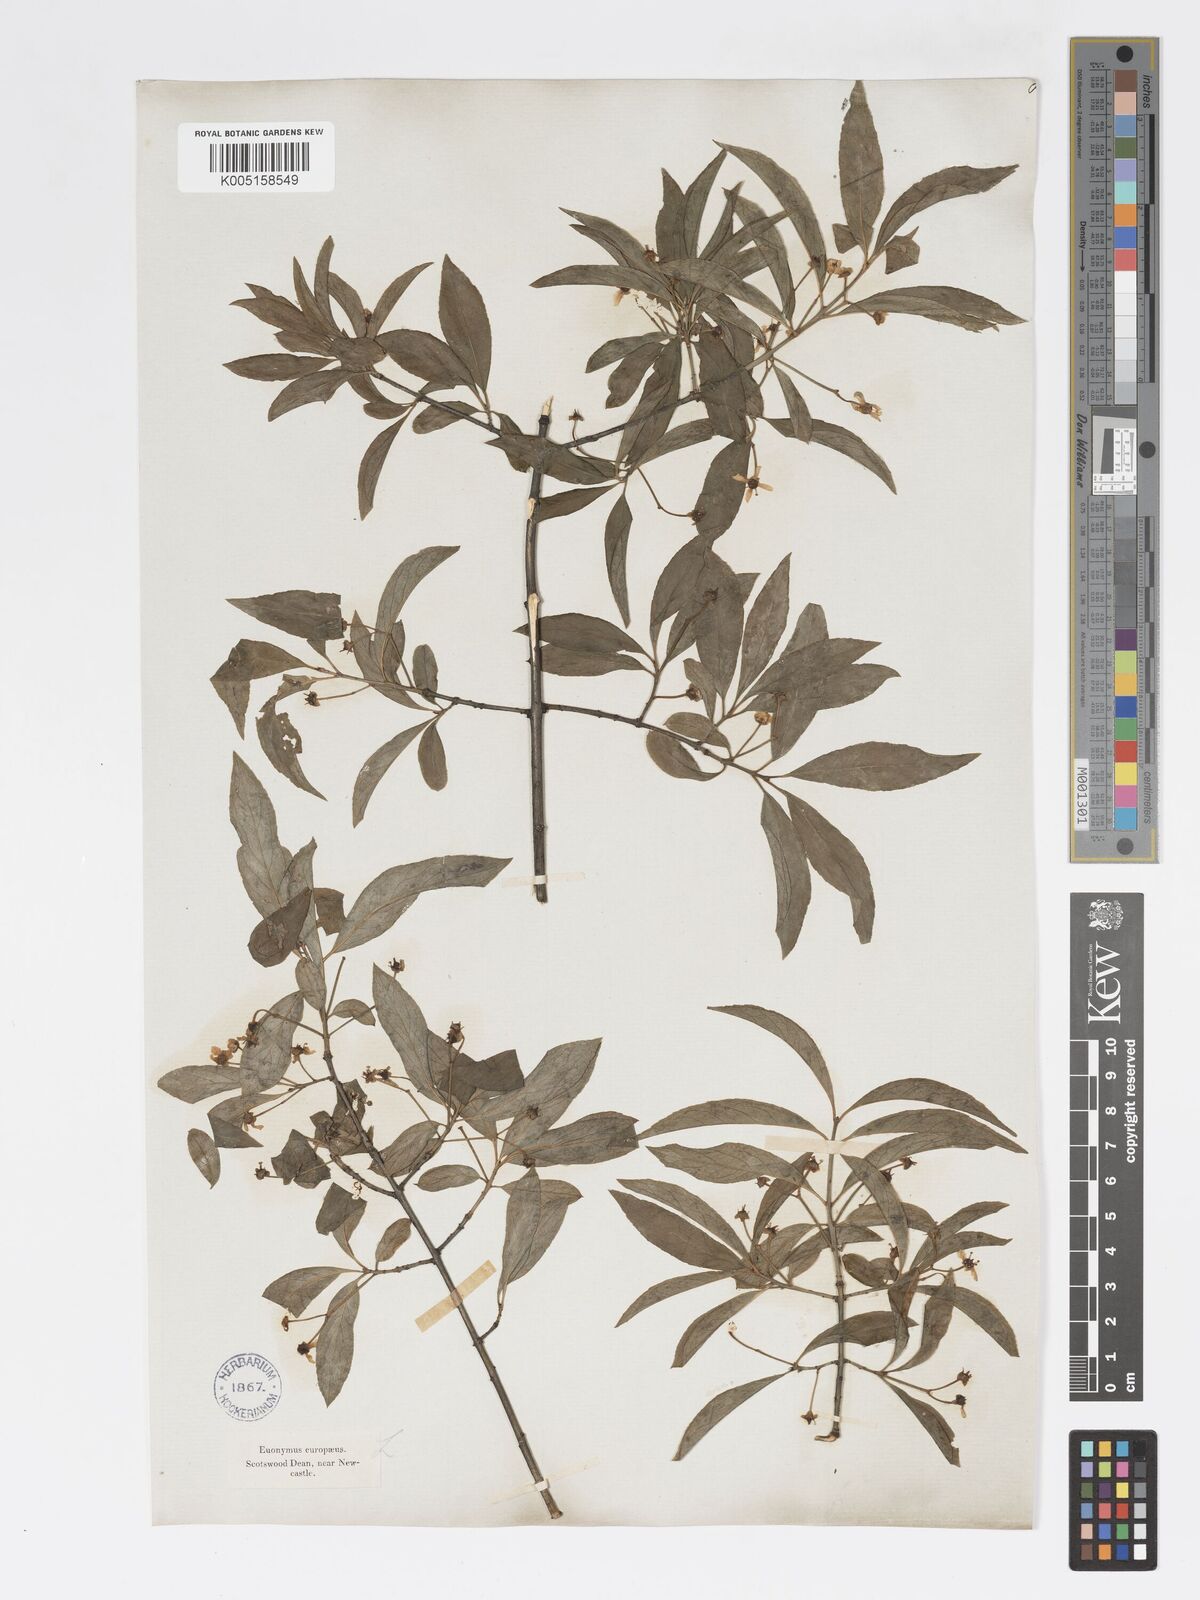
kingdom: Plantae
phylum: Tracheophyta
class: Magnoliopsida
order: Celastrales
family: Celastraceae
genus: Euonymus
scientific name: Euonymus europaeus
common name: Spindle
